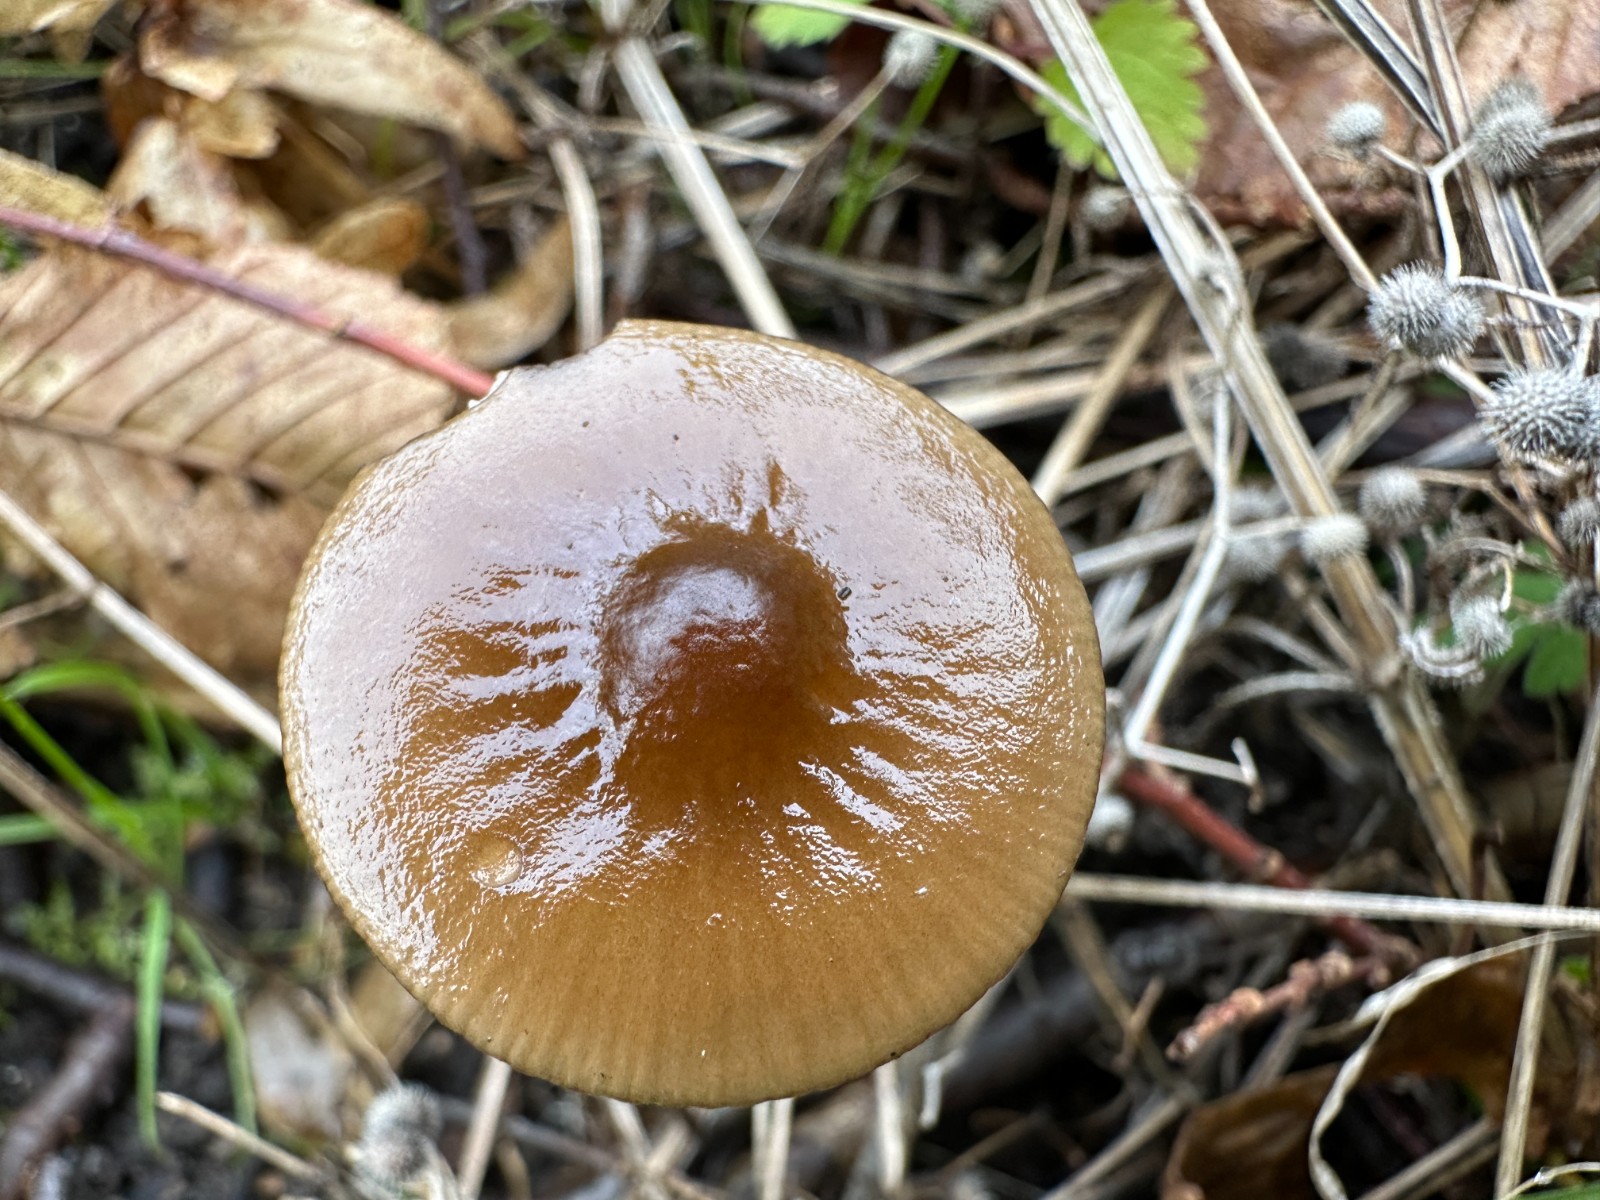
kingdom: Fungi
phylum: Basidiomycota
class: Agaricomycetes
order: Agaricales
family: Physalacriaceae
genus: Hymenopellis
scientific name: Hymenopellis radicata
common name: almindelig pælerodshat
